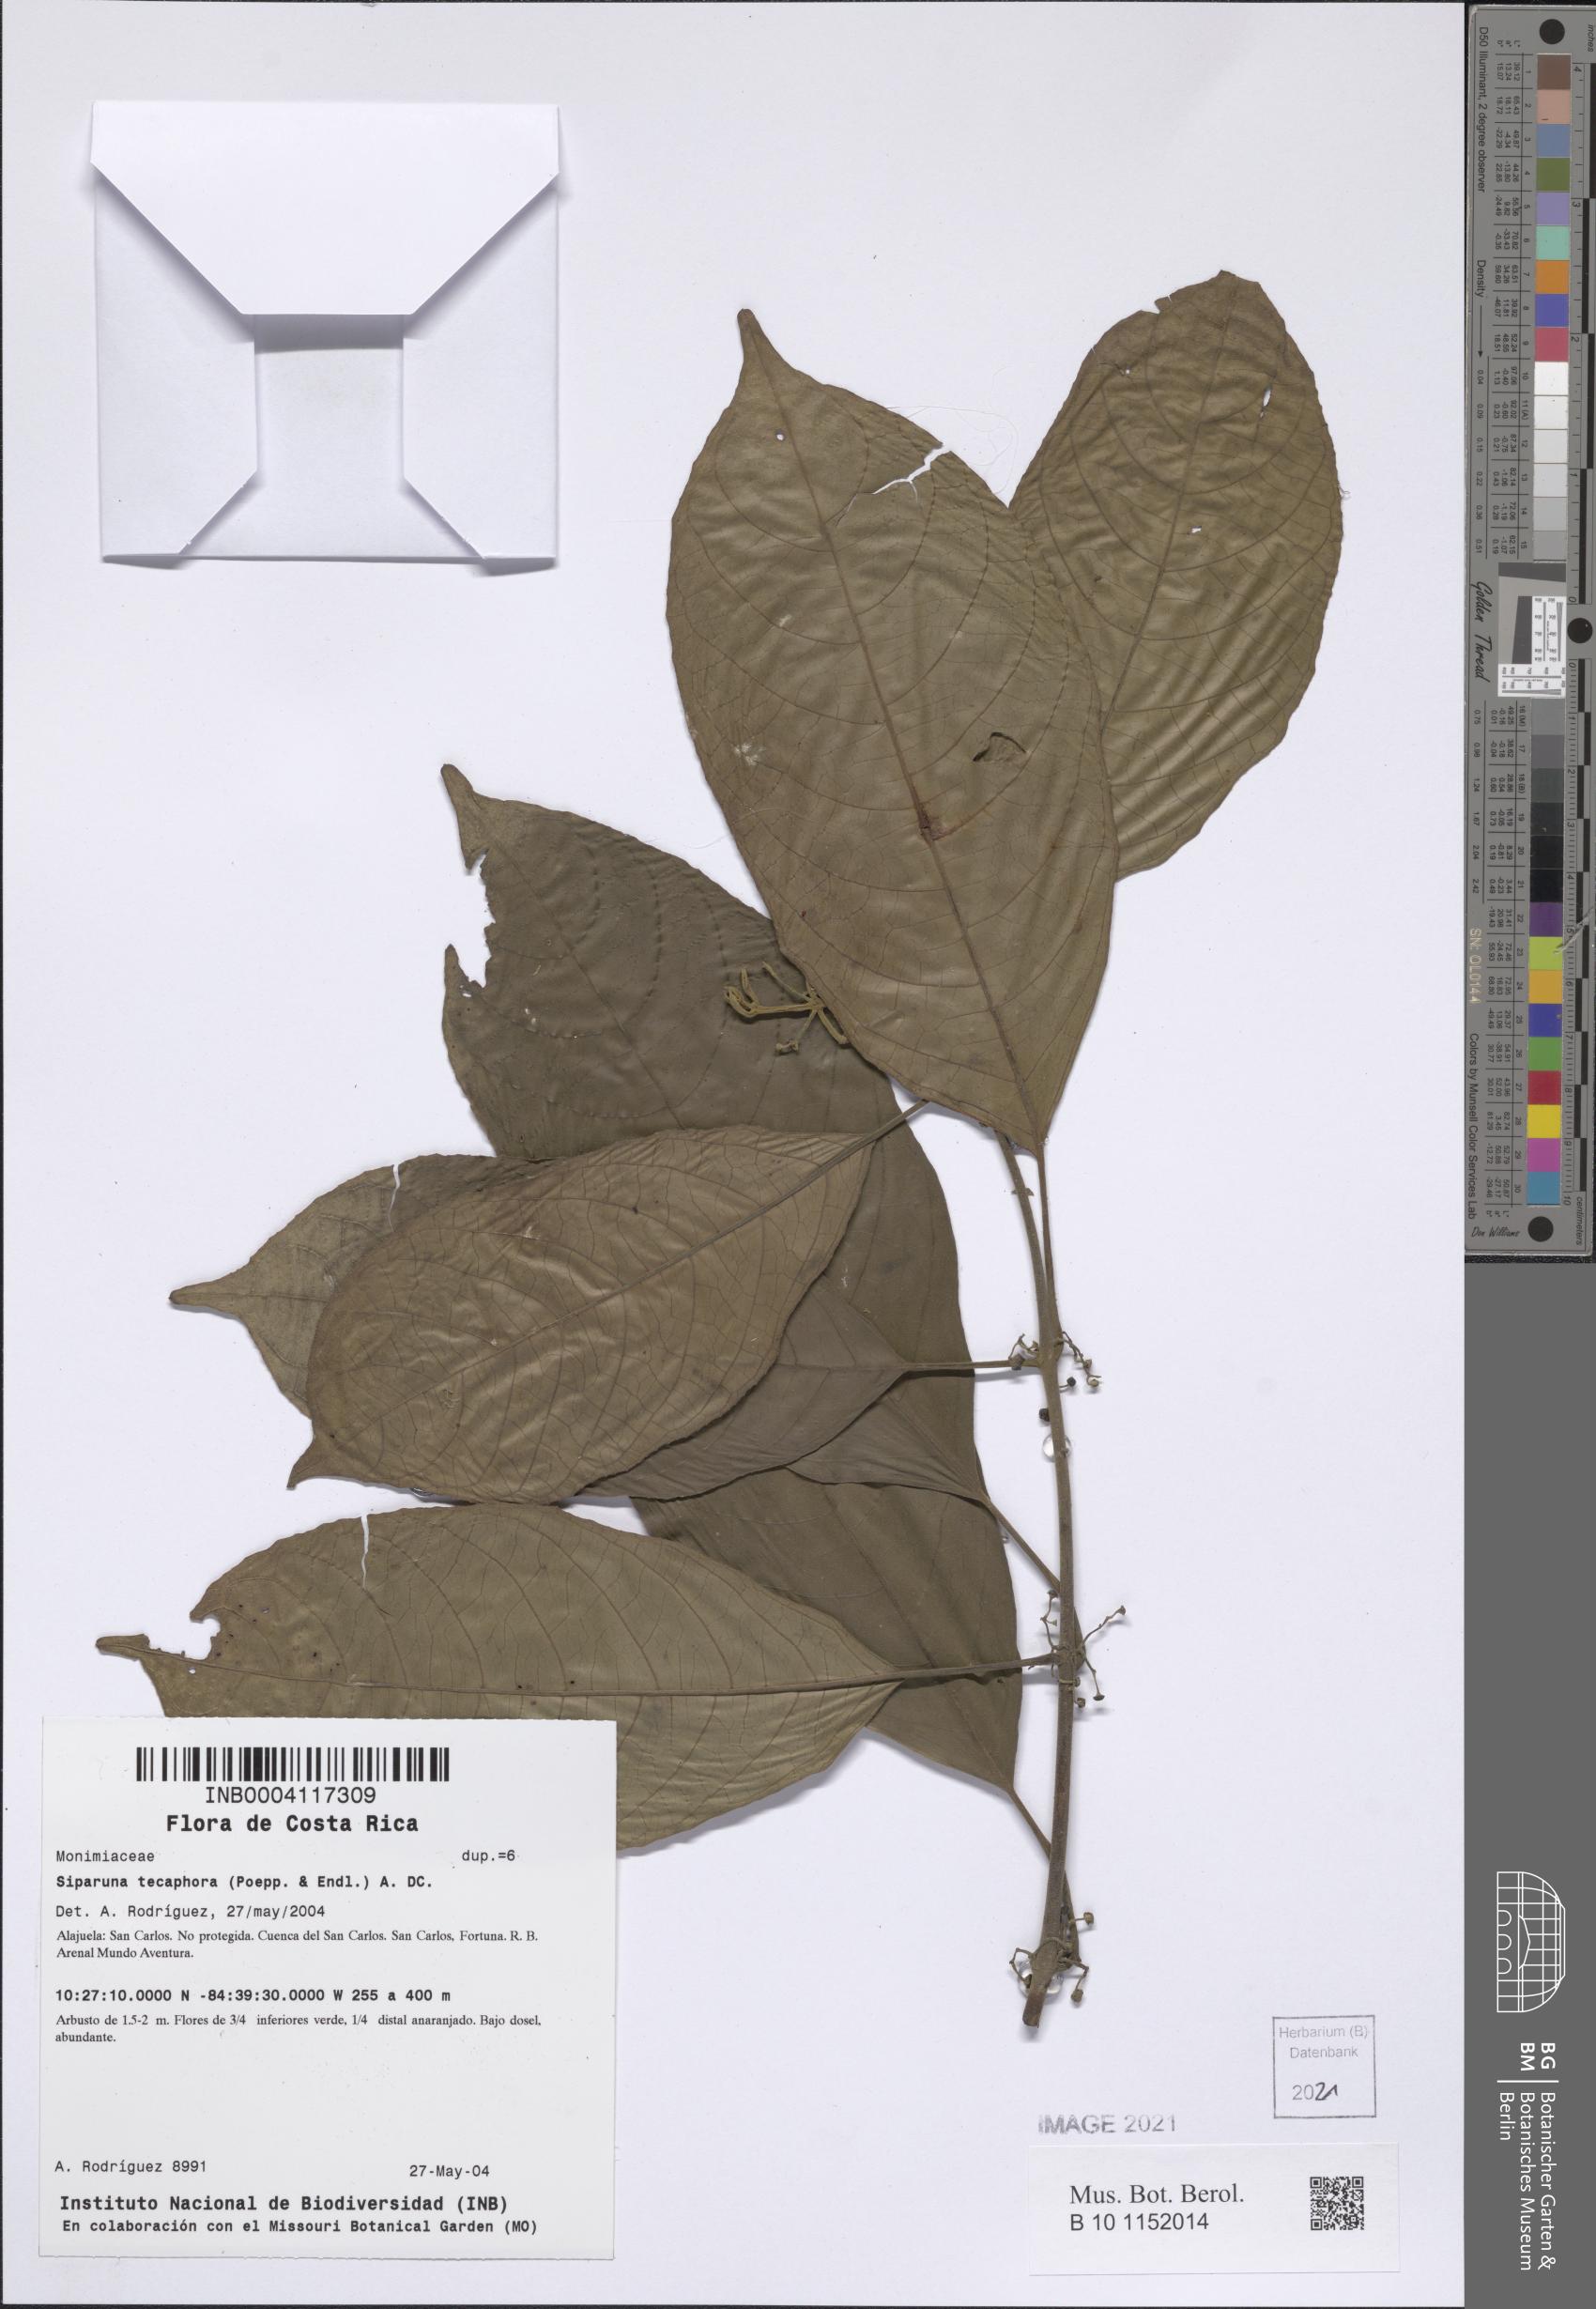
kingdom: Plantae
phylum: Tracheophyta
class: Magnoliopsida
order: Laurales
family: Siparunaceae
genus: Siparuna
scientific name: Siparuna thecaphora
